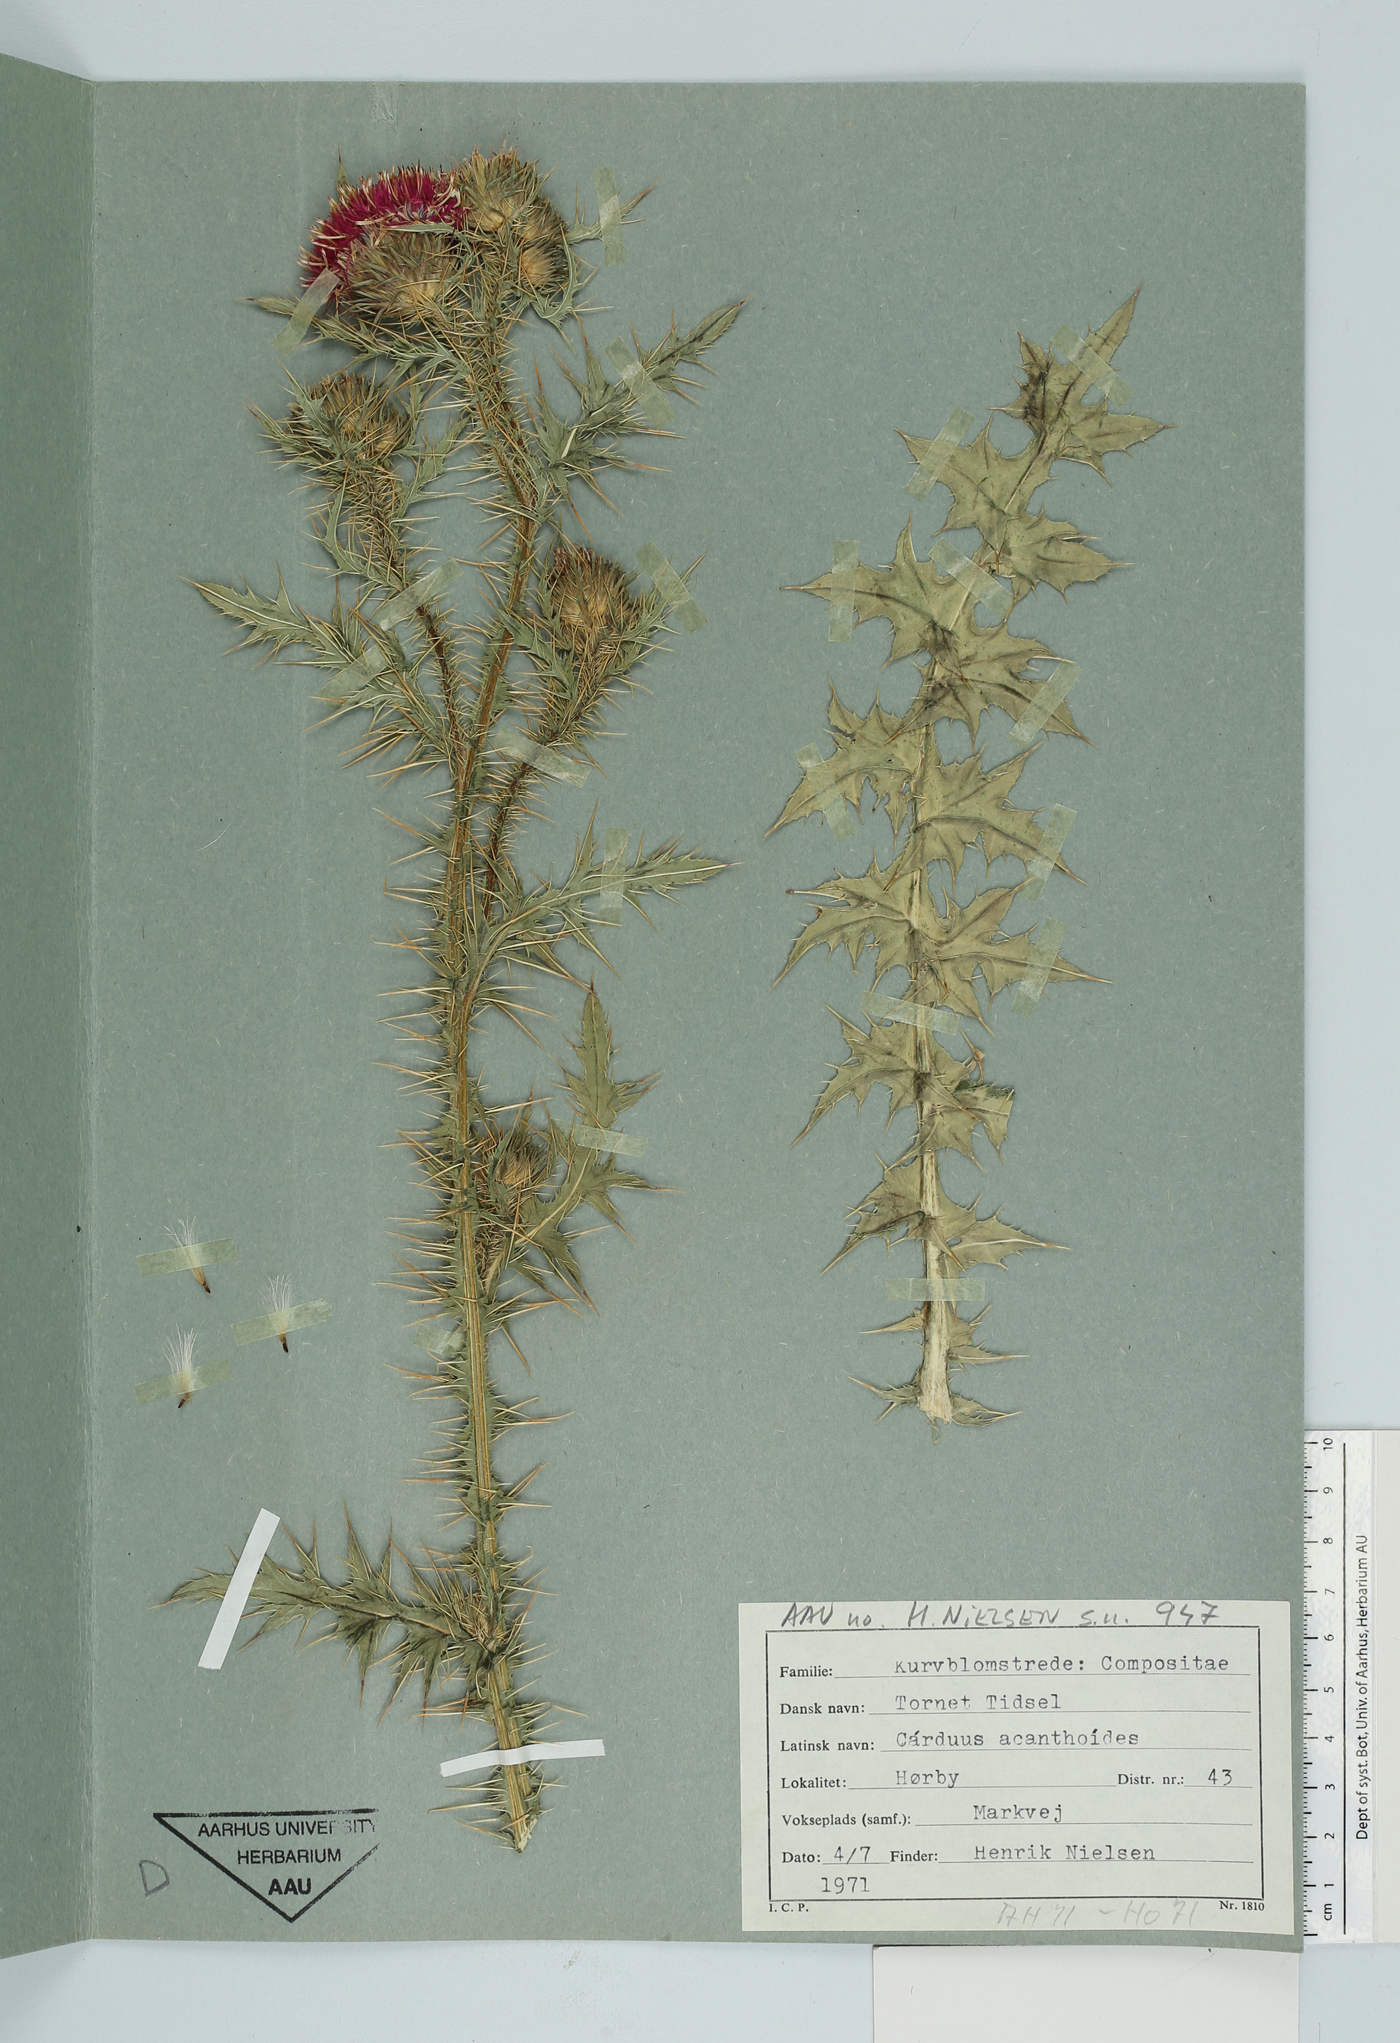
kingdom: Plantae
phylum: Tracheophyta
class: Magnoliopsida
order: Asterales
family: Asteraceae
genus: Carduus
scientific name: Carduus acanthoides
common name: Plumeless thistle
